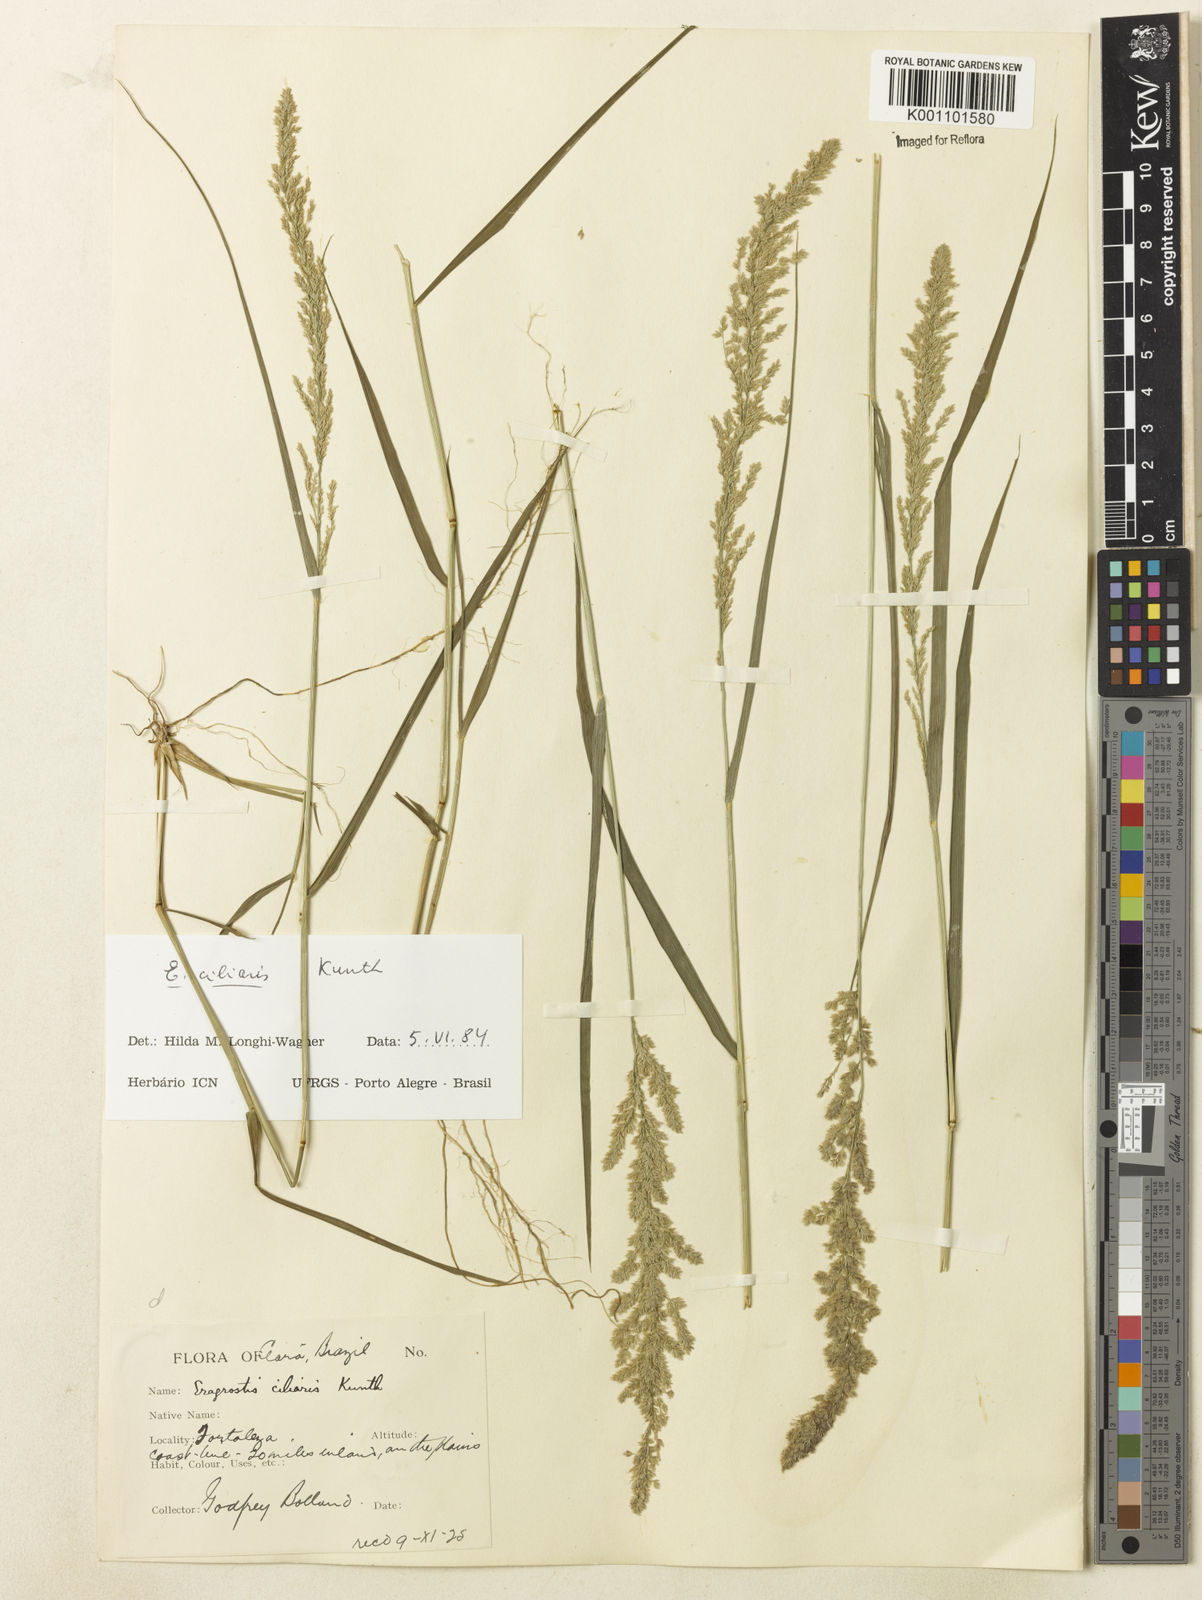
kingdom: Plantae
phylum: Tracheophyta
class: Liliopsida
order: Poales
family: Poaceae
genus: Eragrostis
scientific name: Eragrostis ciliaris
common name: Gophertail lovegrass
